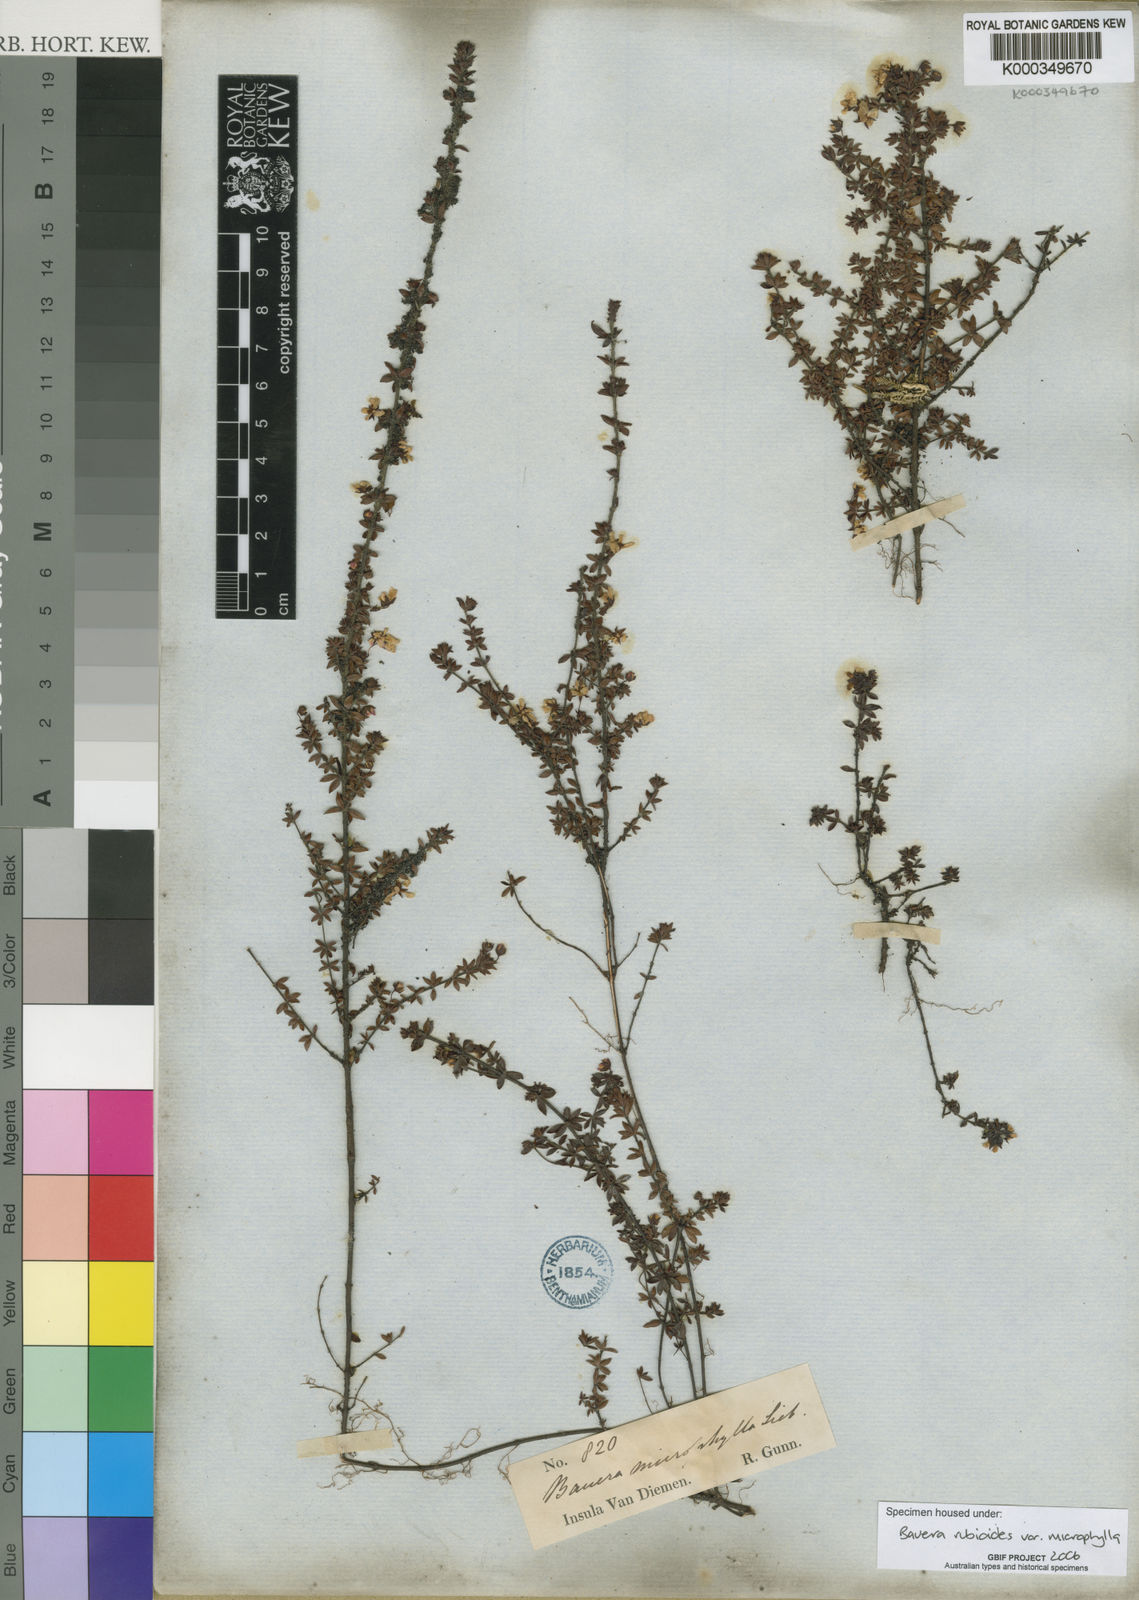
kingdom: Plantae
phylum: Tracheophyta
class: Magnoliopsida
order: Oxalidales
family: Cunoniaceae
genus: Bauera
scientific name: Bauera rubioides
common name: River-rose
